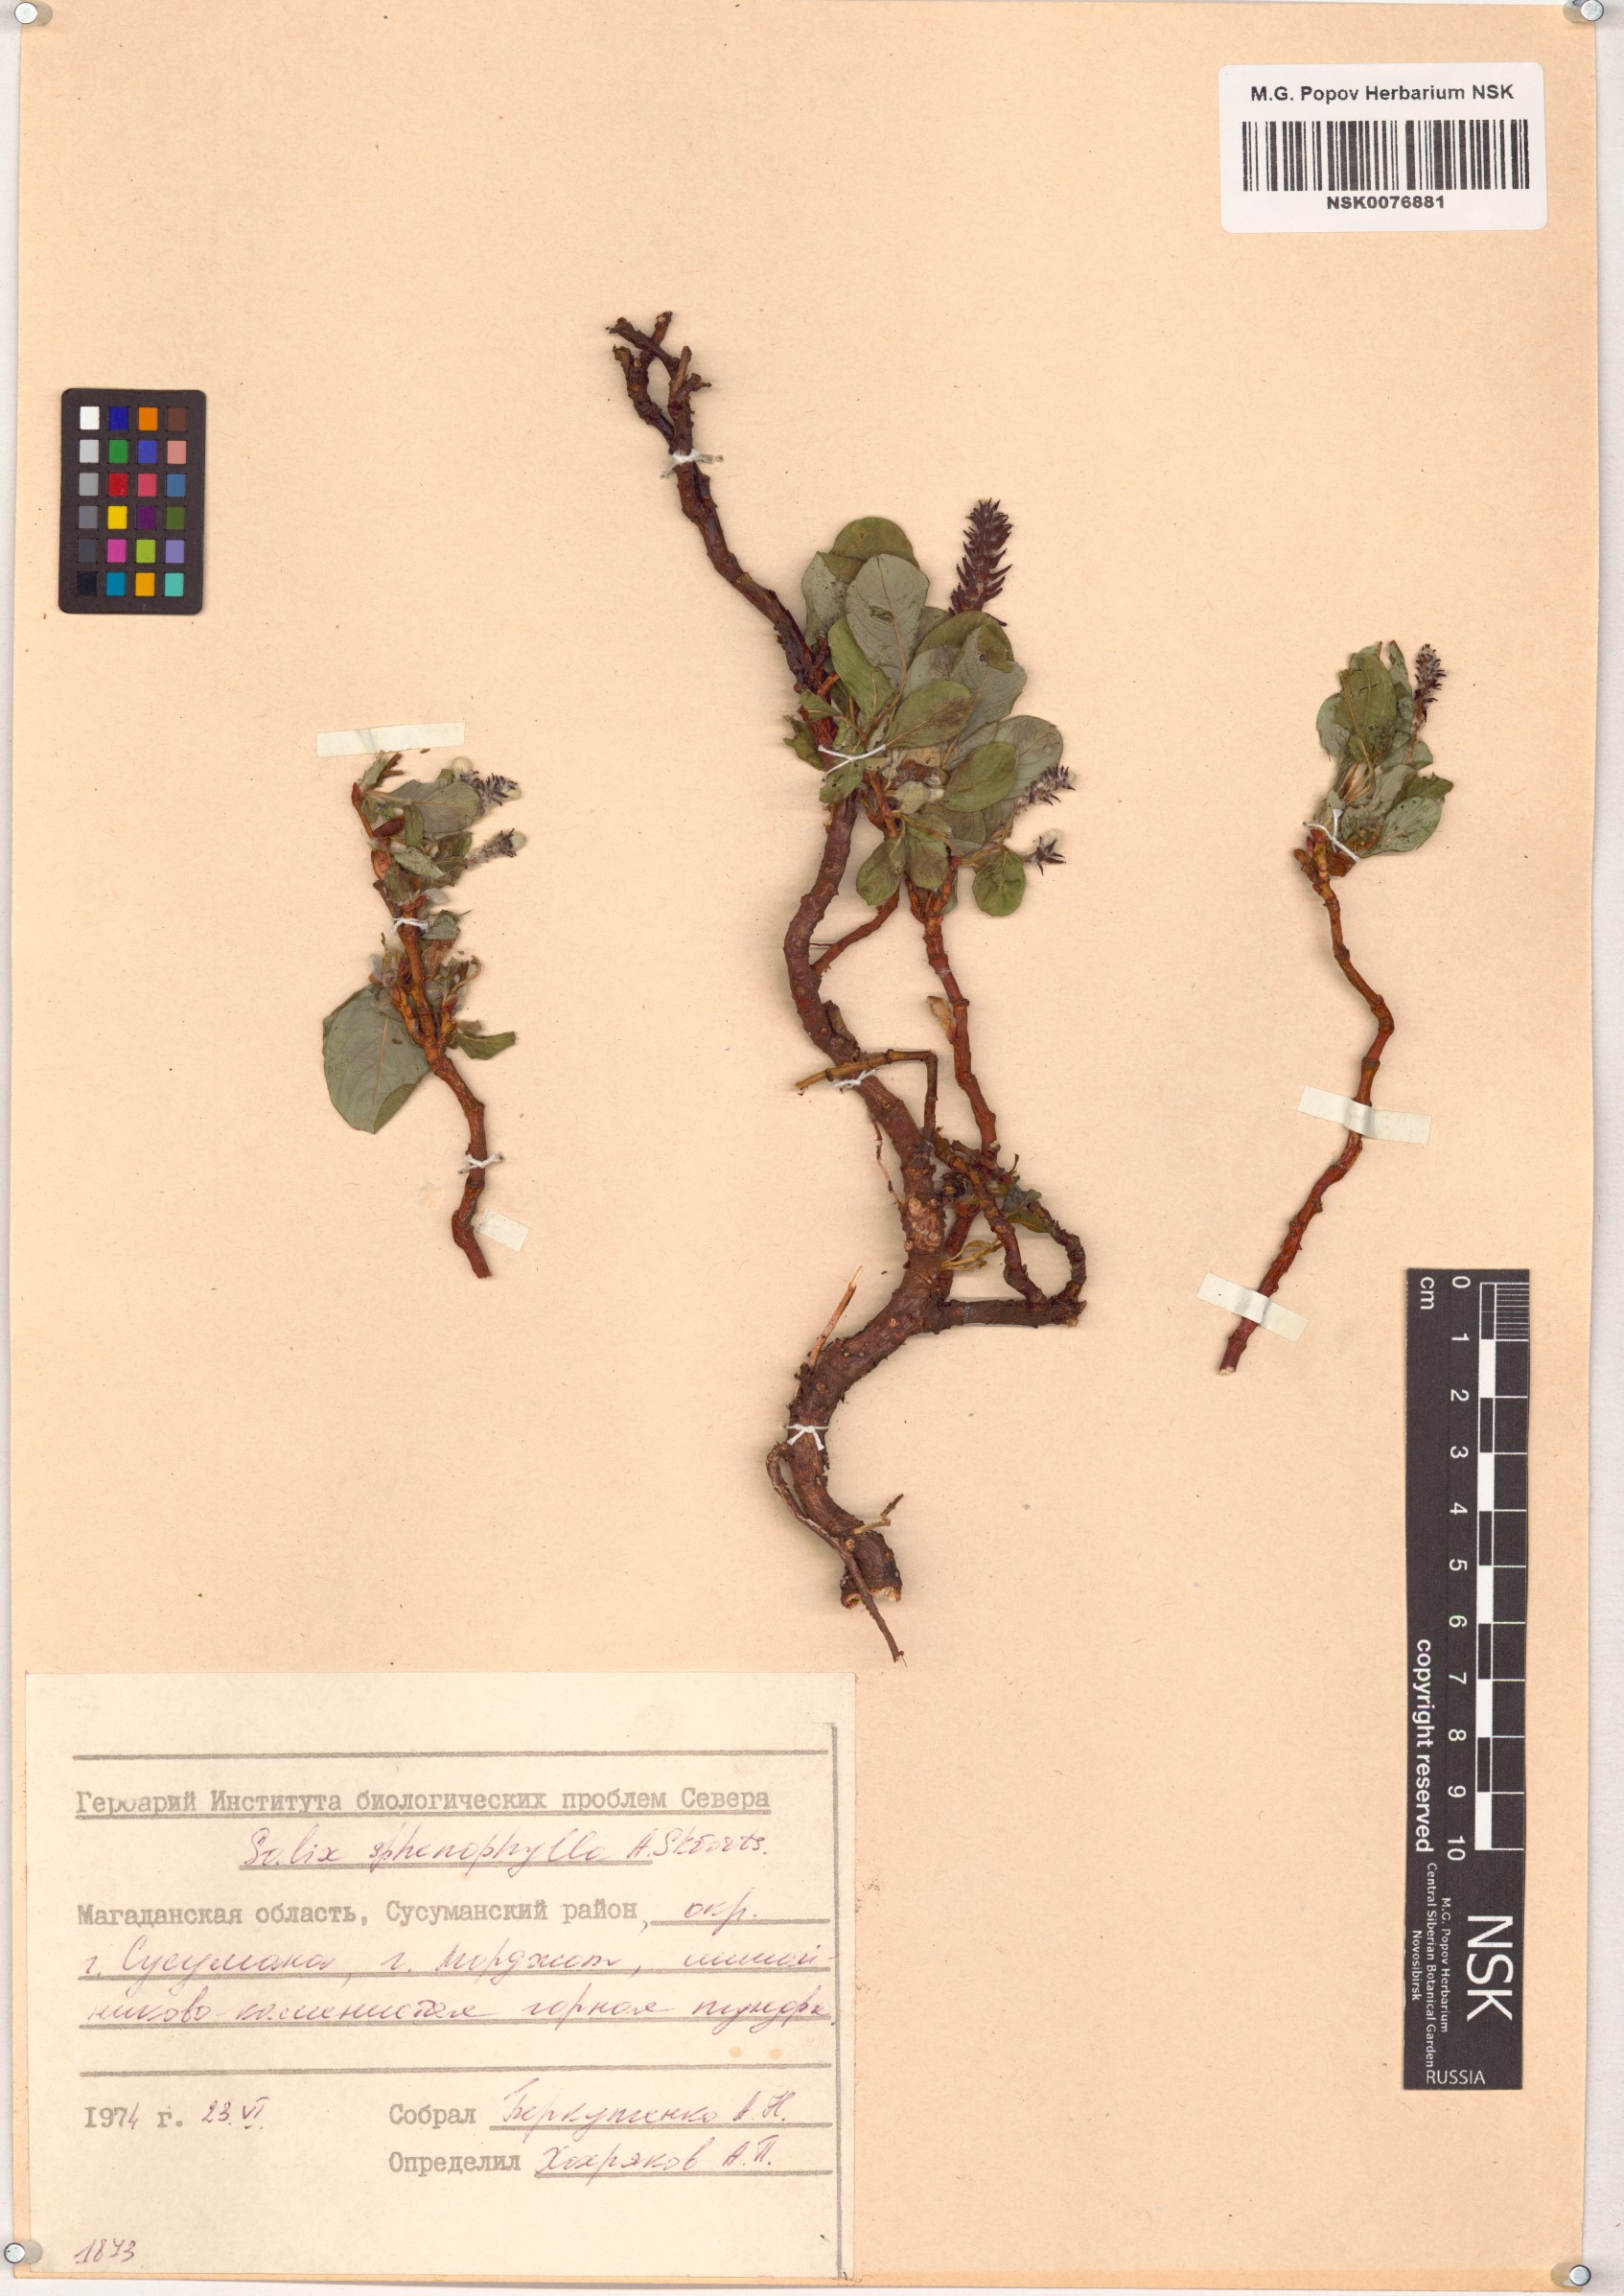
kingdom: Plantae
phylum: Tracheophyta
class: Magnoliopsida
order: Malpighiales
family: Salicaceae
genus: Salix
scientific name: Salix sphenophylla
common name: Wedge-leaved willow
